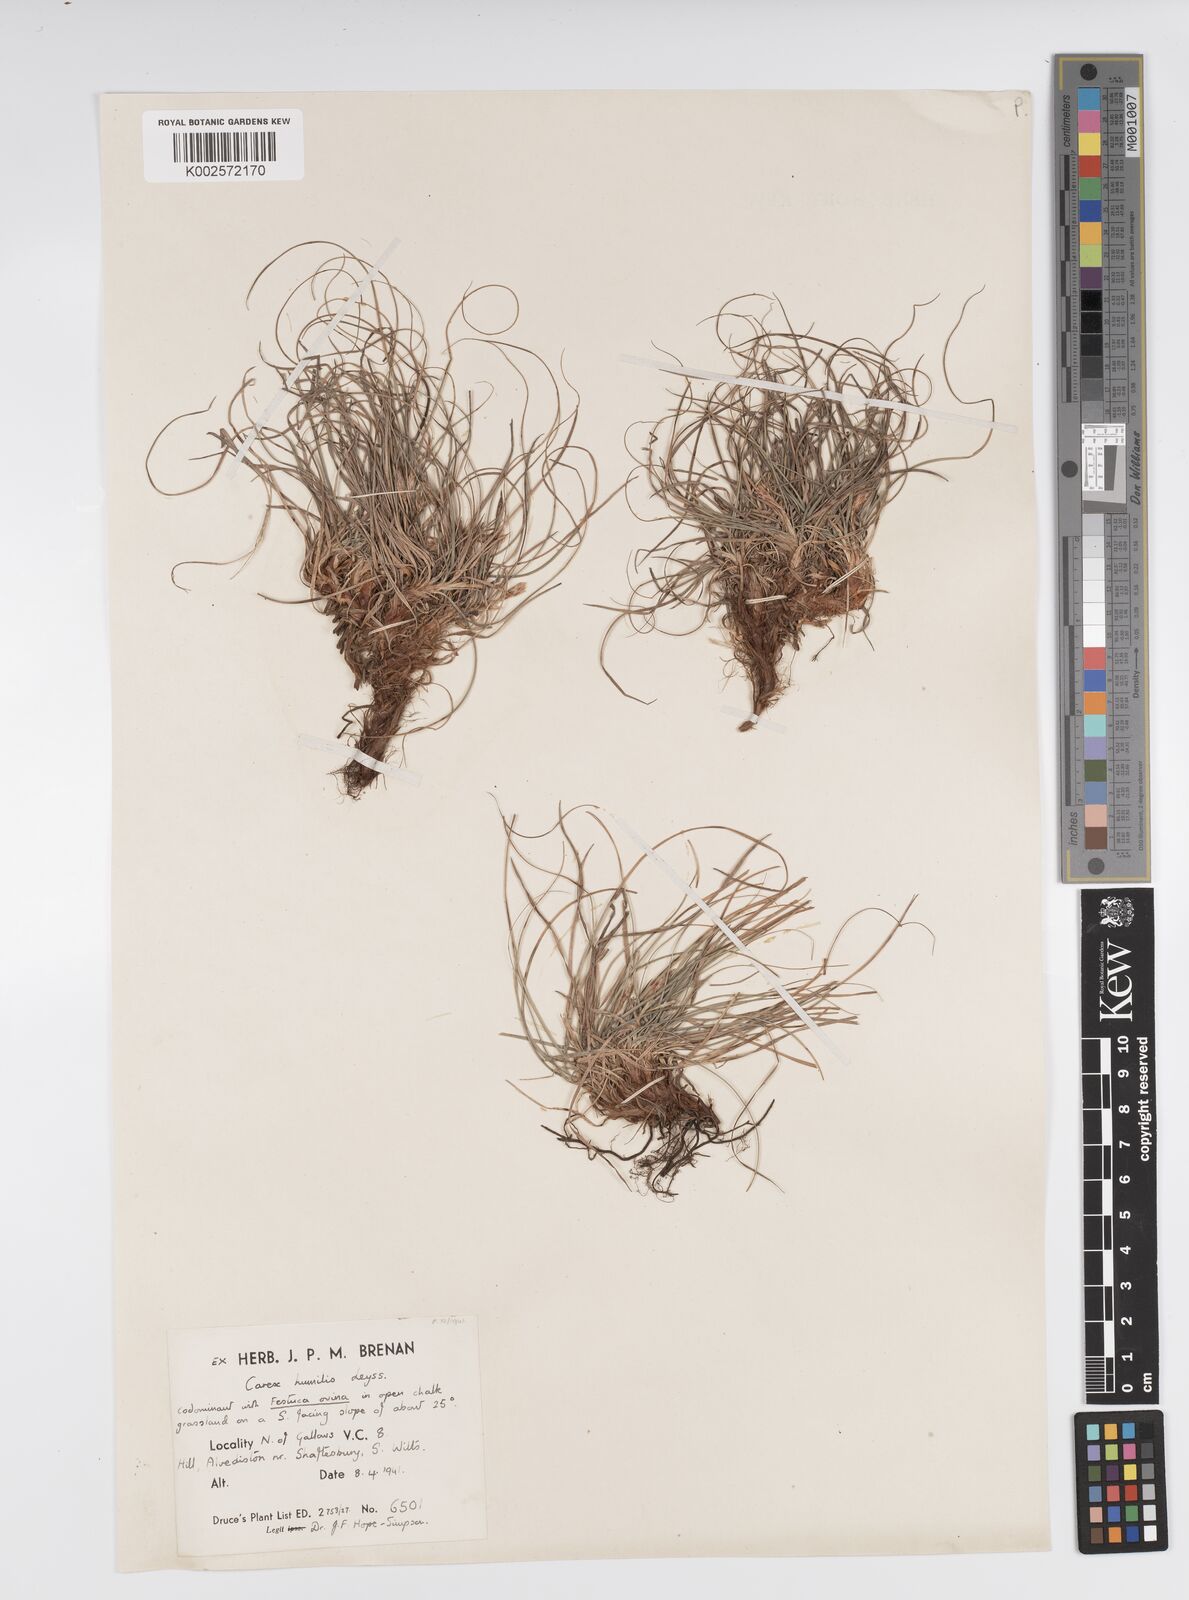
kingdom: Plantae
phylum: Tracheophyta
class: Liliopsida
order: Poales
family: Cyperaceae
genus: Carex
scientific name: Carex humilis
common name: Dwarf sedge
